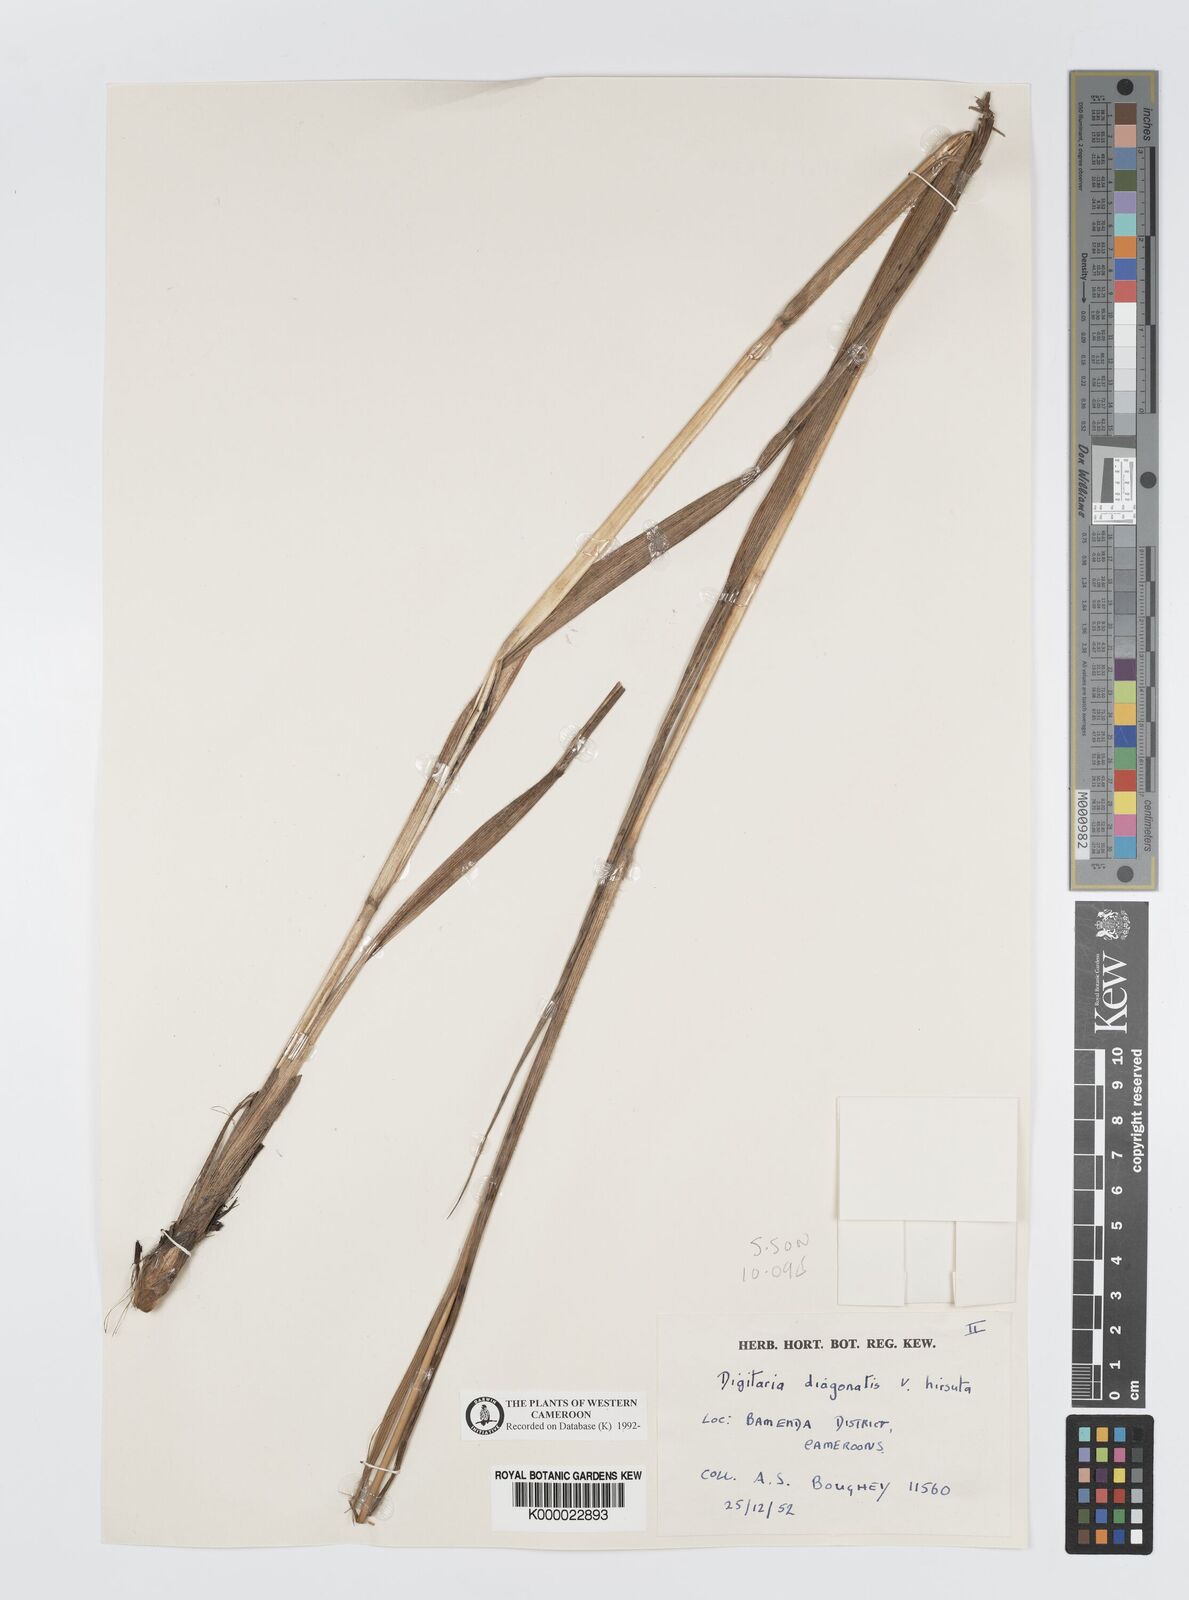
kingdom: Plantae
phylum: Tracheophyta
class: Liliopsida
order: Poales
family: Poaceae
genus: Digitaria
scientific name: Digitaria diagonalis
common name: Brown-seed finger grass
